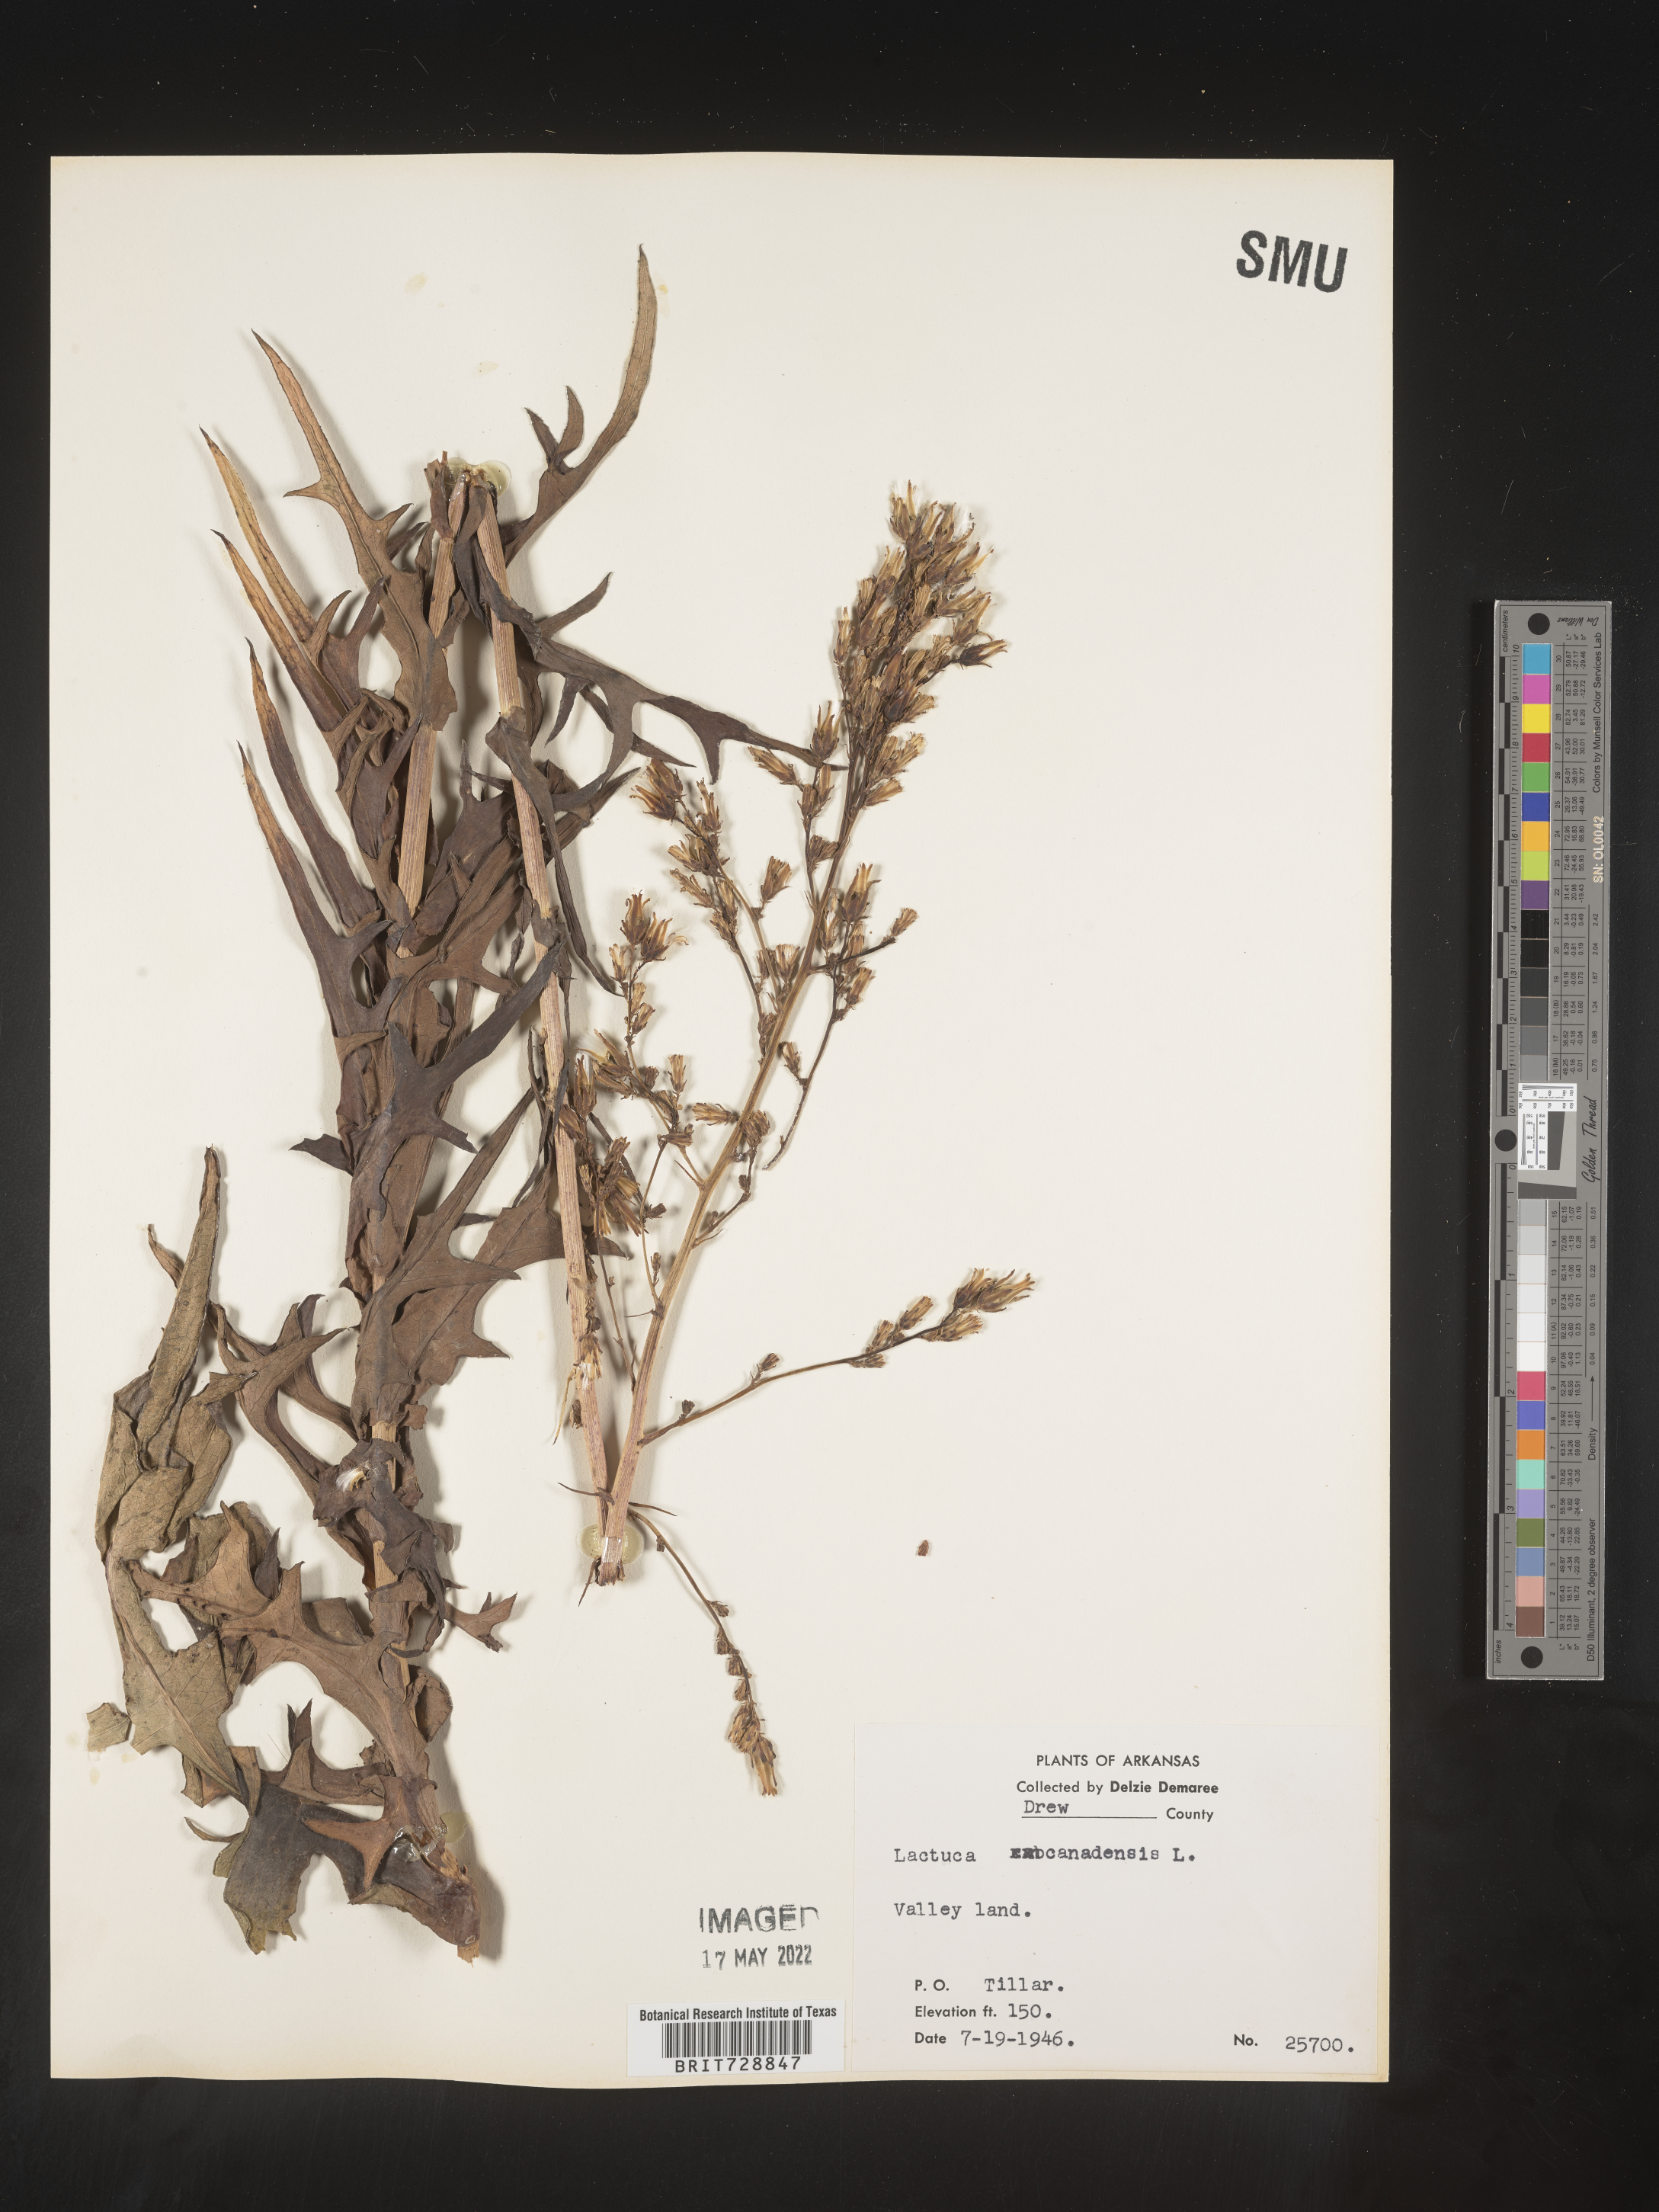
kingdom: Plantae
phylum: Tracheophyta
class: Magnoliopsida
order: Asterales
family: Asteraceae
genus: Lactuca
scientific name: Lactuca canadensis
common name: Canada lettuce
